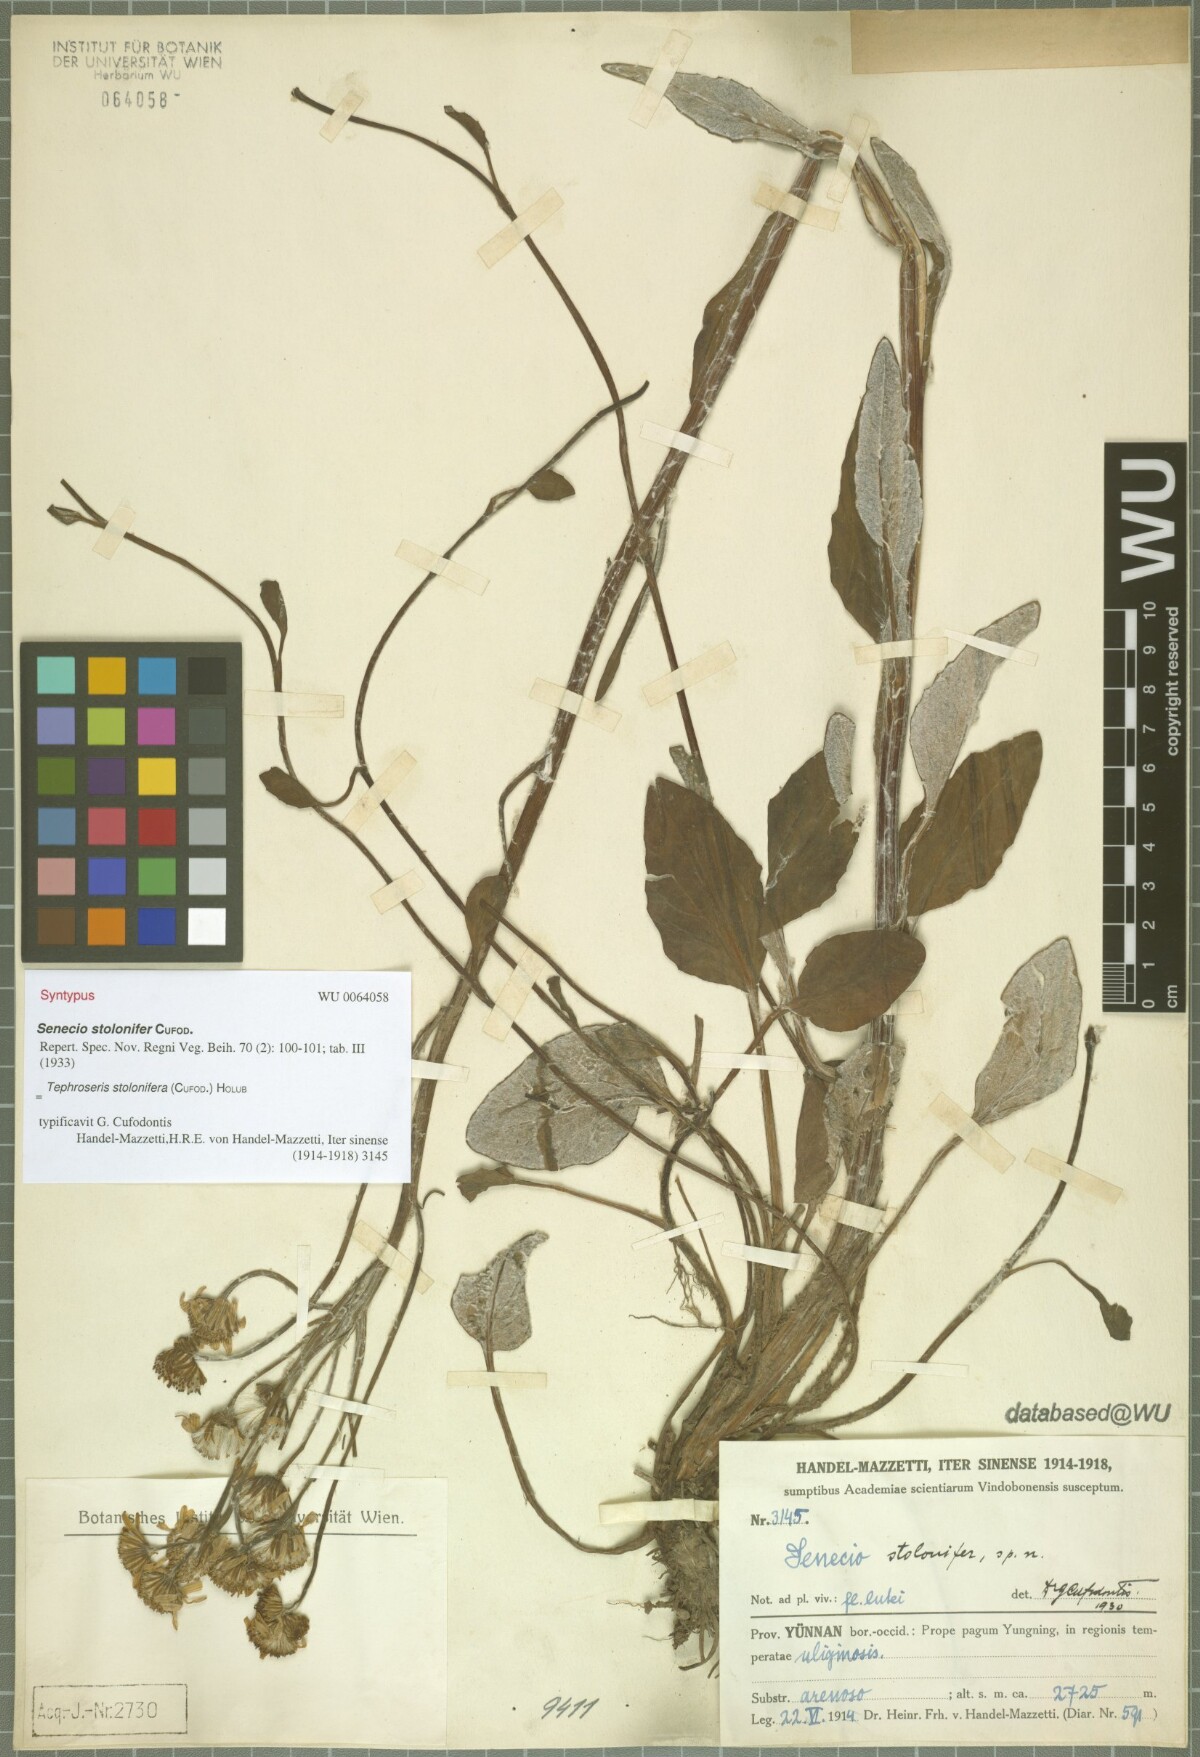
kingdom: Plantae
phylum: Tracheophyta
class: Magnoliopsida
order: Asterales
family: Asteraceae
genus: Tephroseris
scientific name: Tephroseris stolonifera
